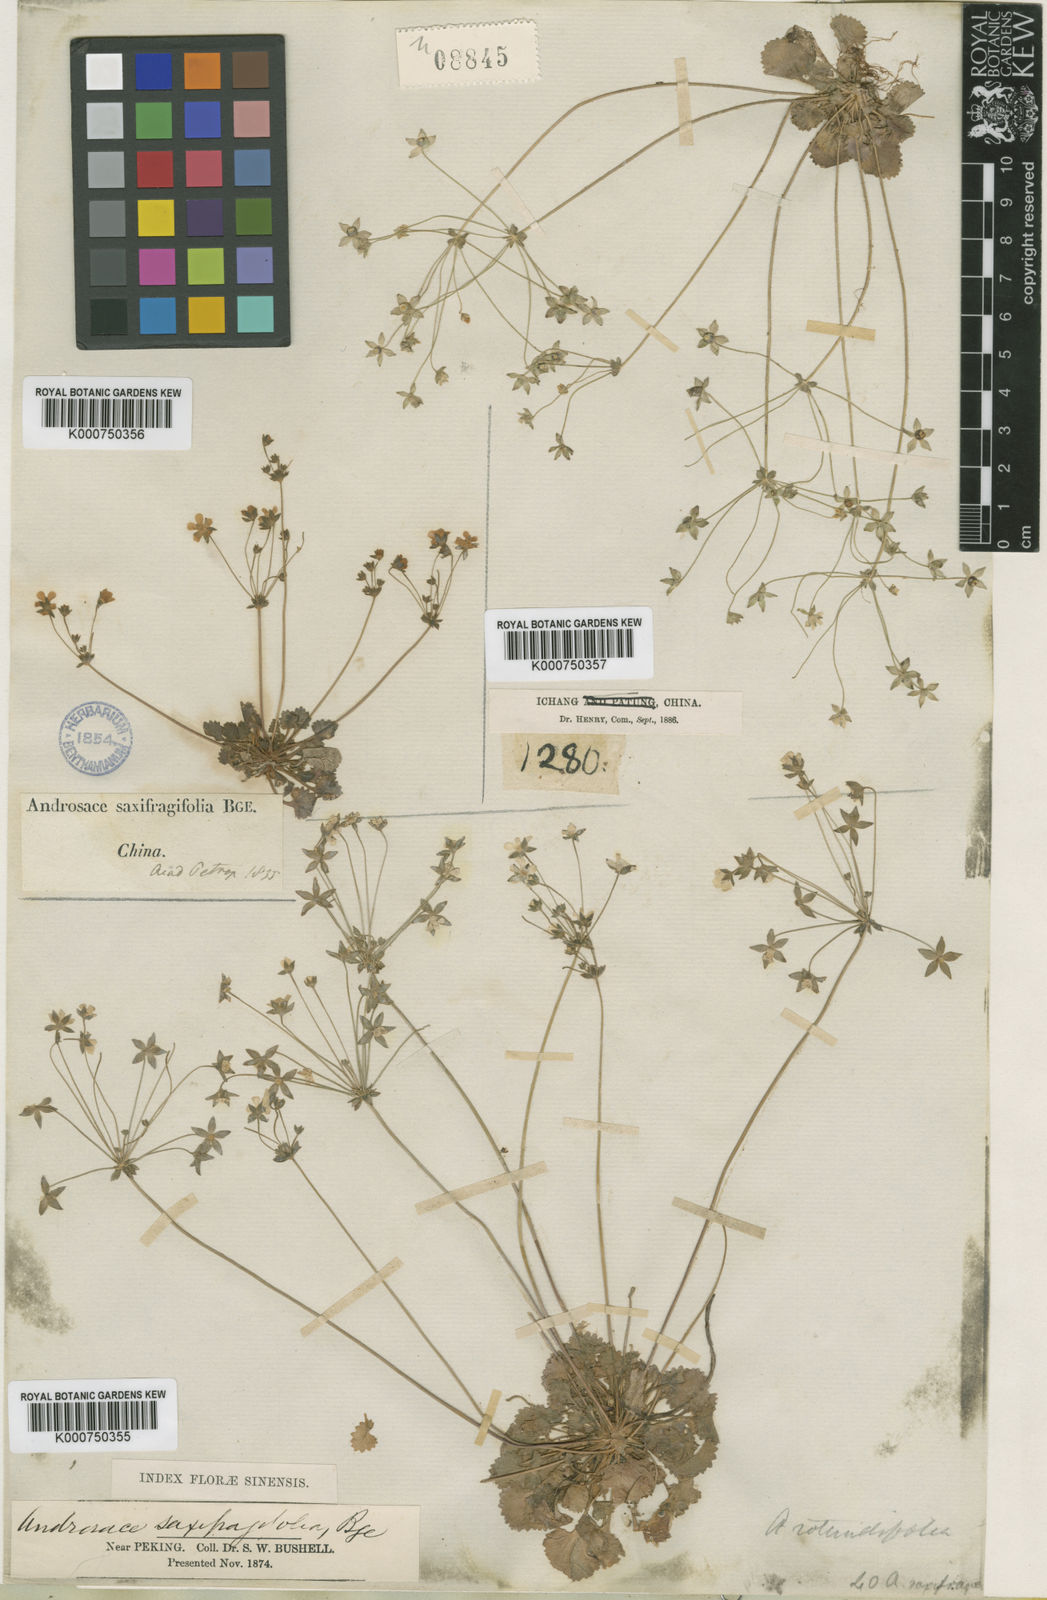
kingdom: Plantae
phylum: Tracheophyta
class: Magnoliopsida
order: Ericales
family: Primulaceae
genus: Androsace
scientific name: Androsace umbellata
